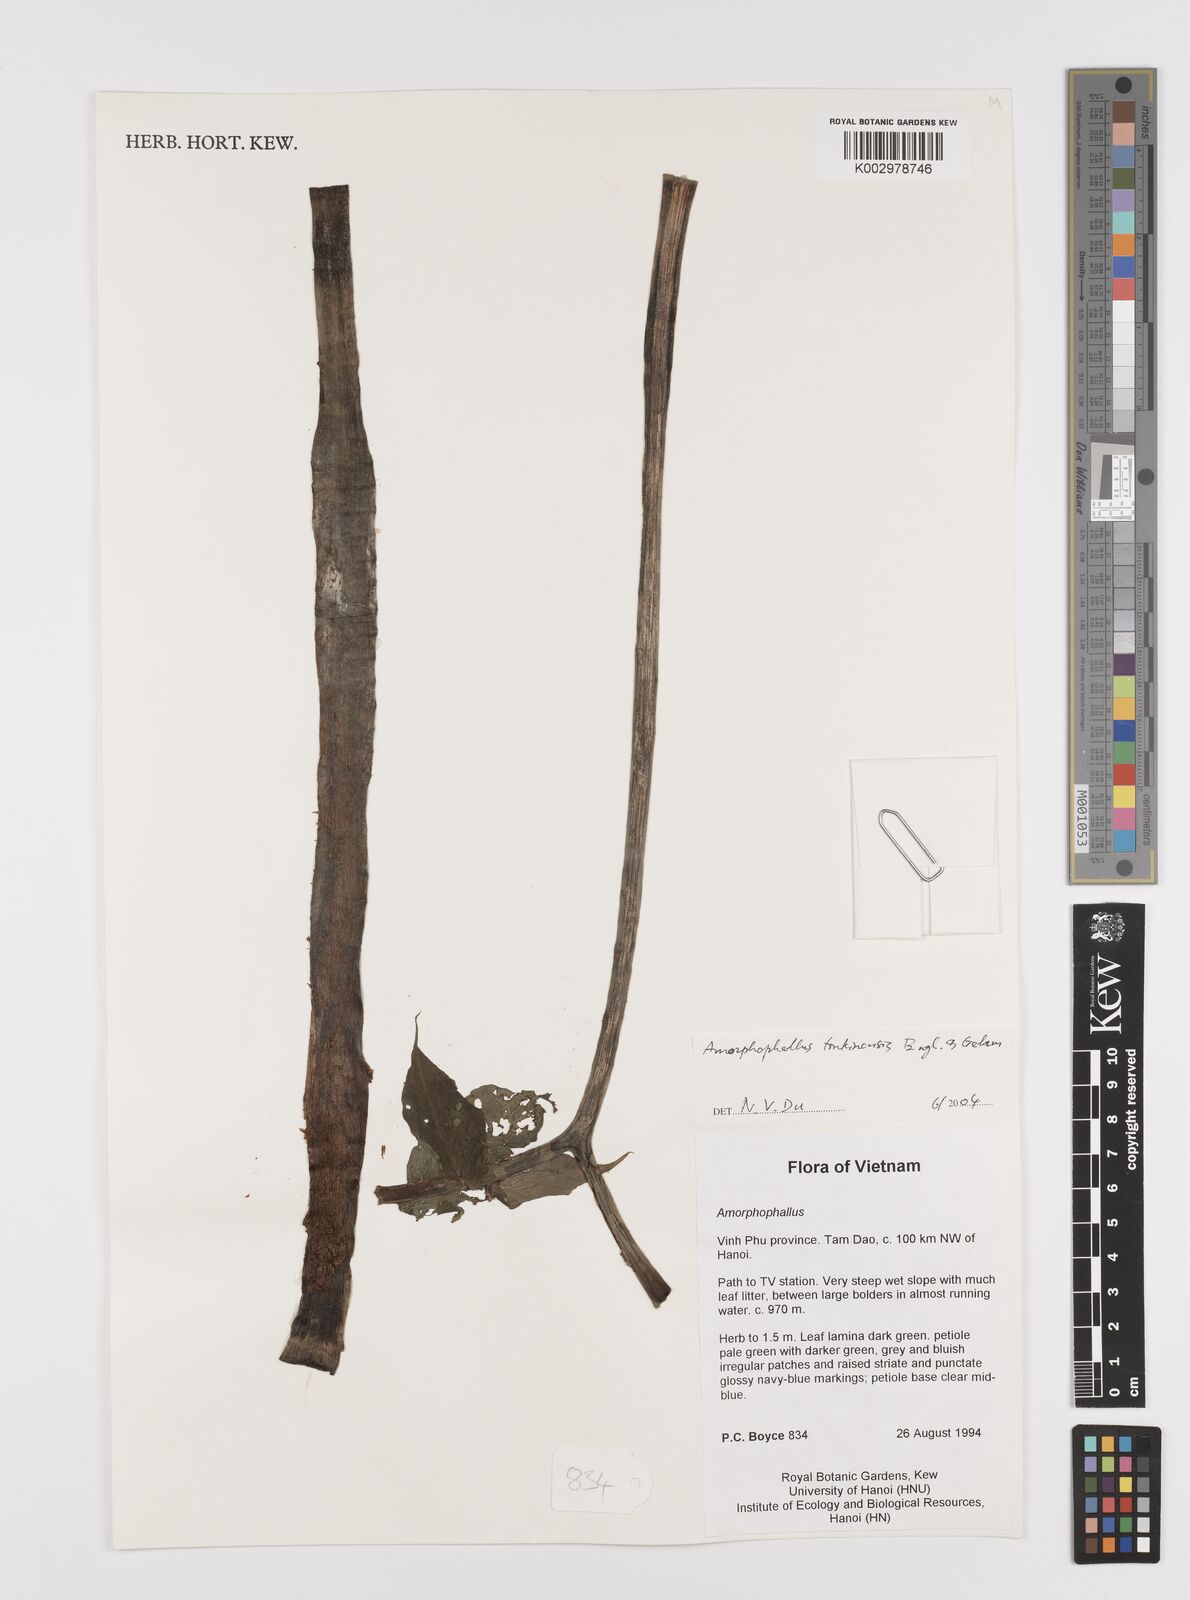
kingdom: Plantae
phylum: Tracheophyta
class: Liliopsida
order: Alismatales
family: Araceae
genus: Amorphophallus
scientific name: Amorphophallus tonkinensis
